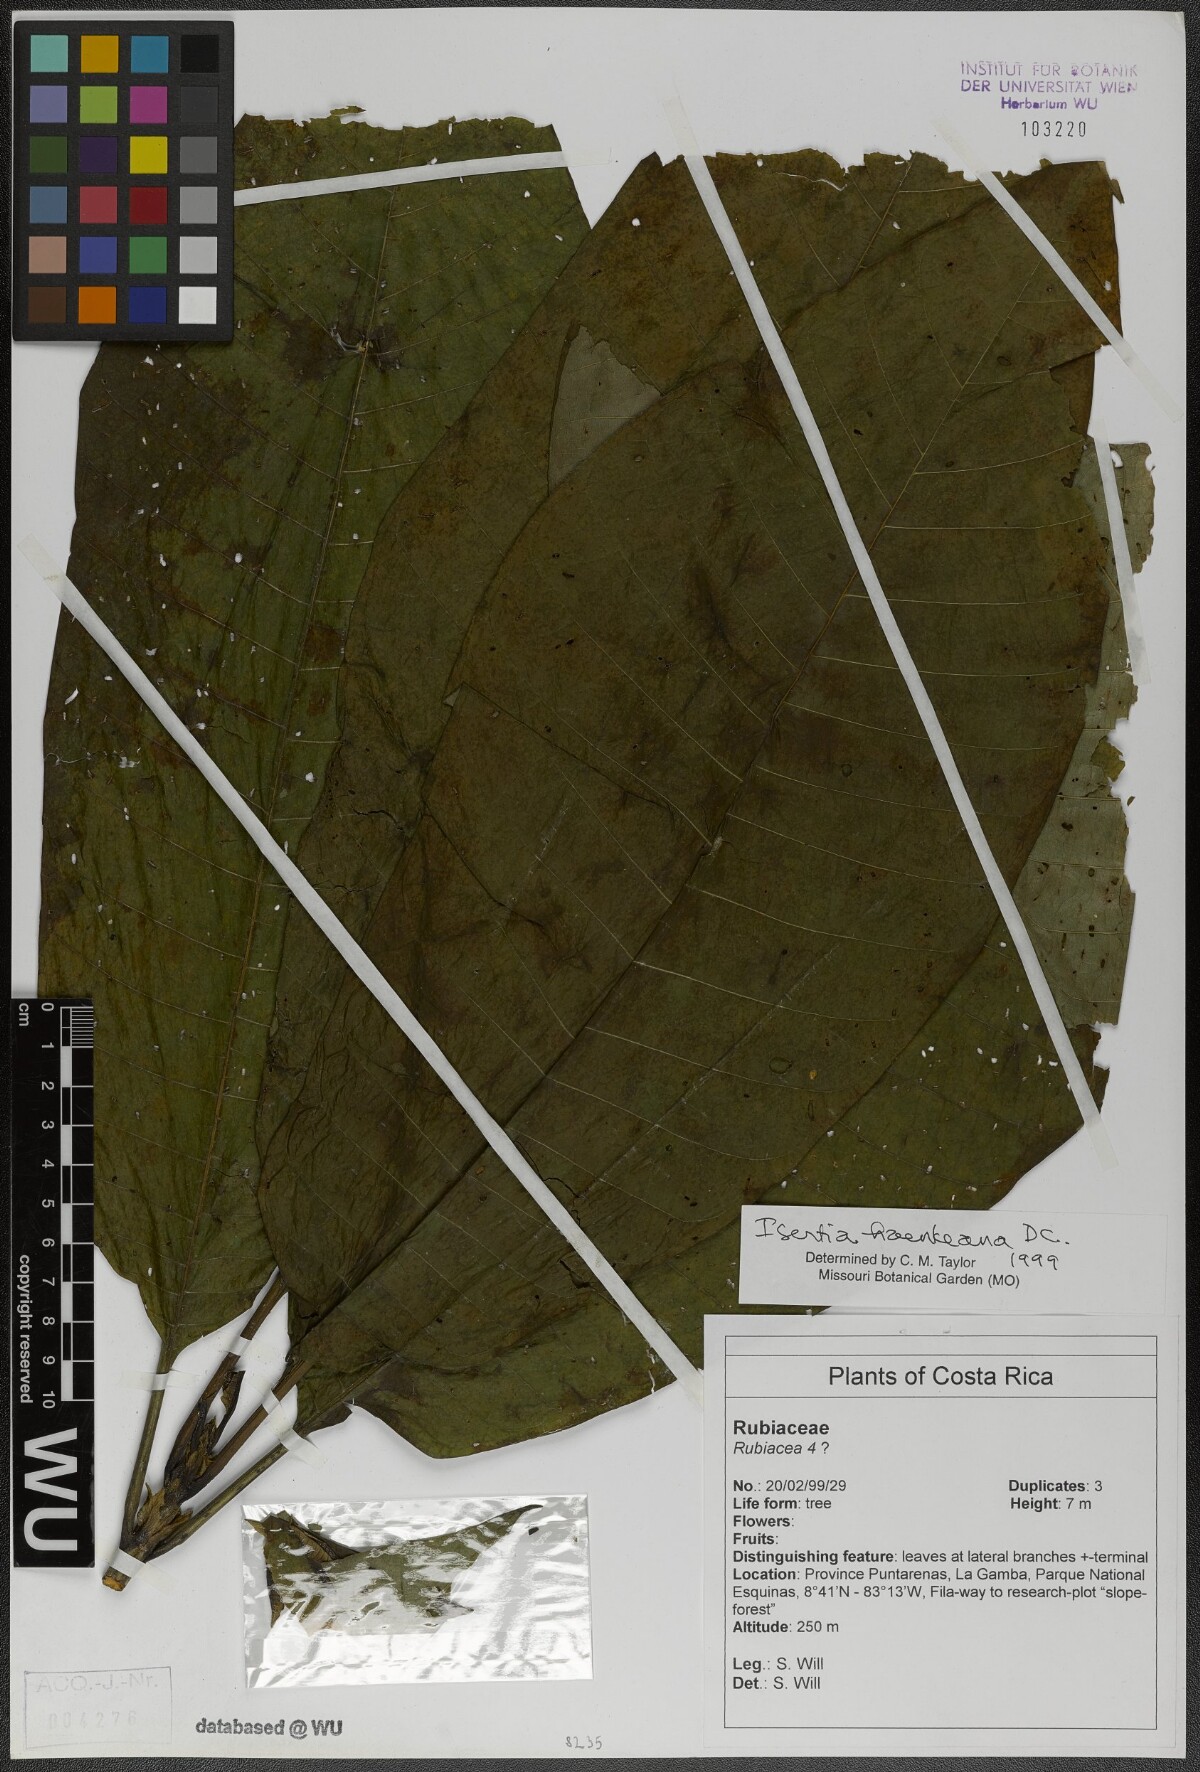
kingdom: Plantae
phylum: Tracheophyta
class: Magnoliopsida
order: Gentianales
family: Rubiaceae
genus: Isertia
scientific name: Isertia haenkeana
